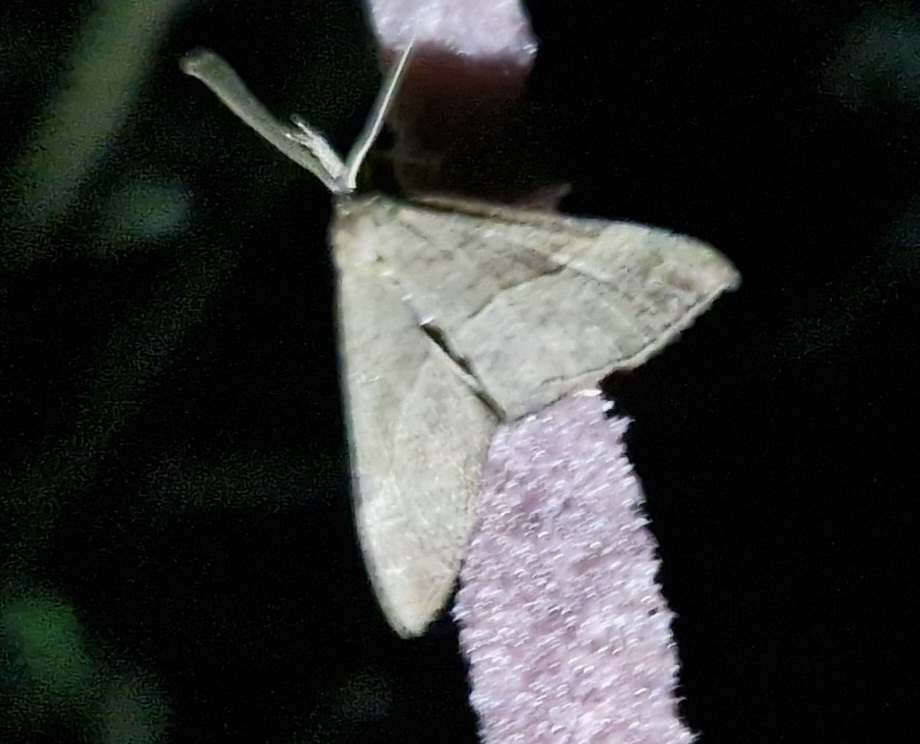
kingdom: Animalia
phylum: Arthropoda
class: Insecta
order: Lepidoptera
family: Erebidae
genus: Hypena
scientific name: Hypena proboscidalis
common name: Snudeugle
